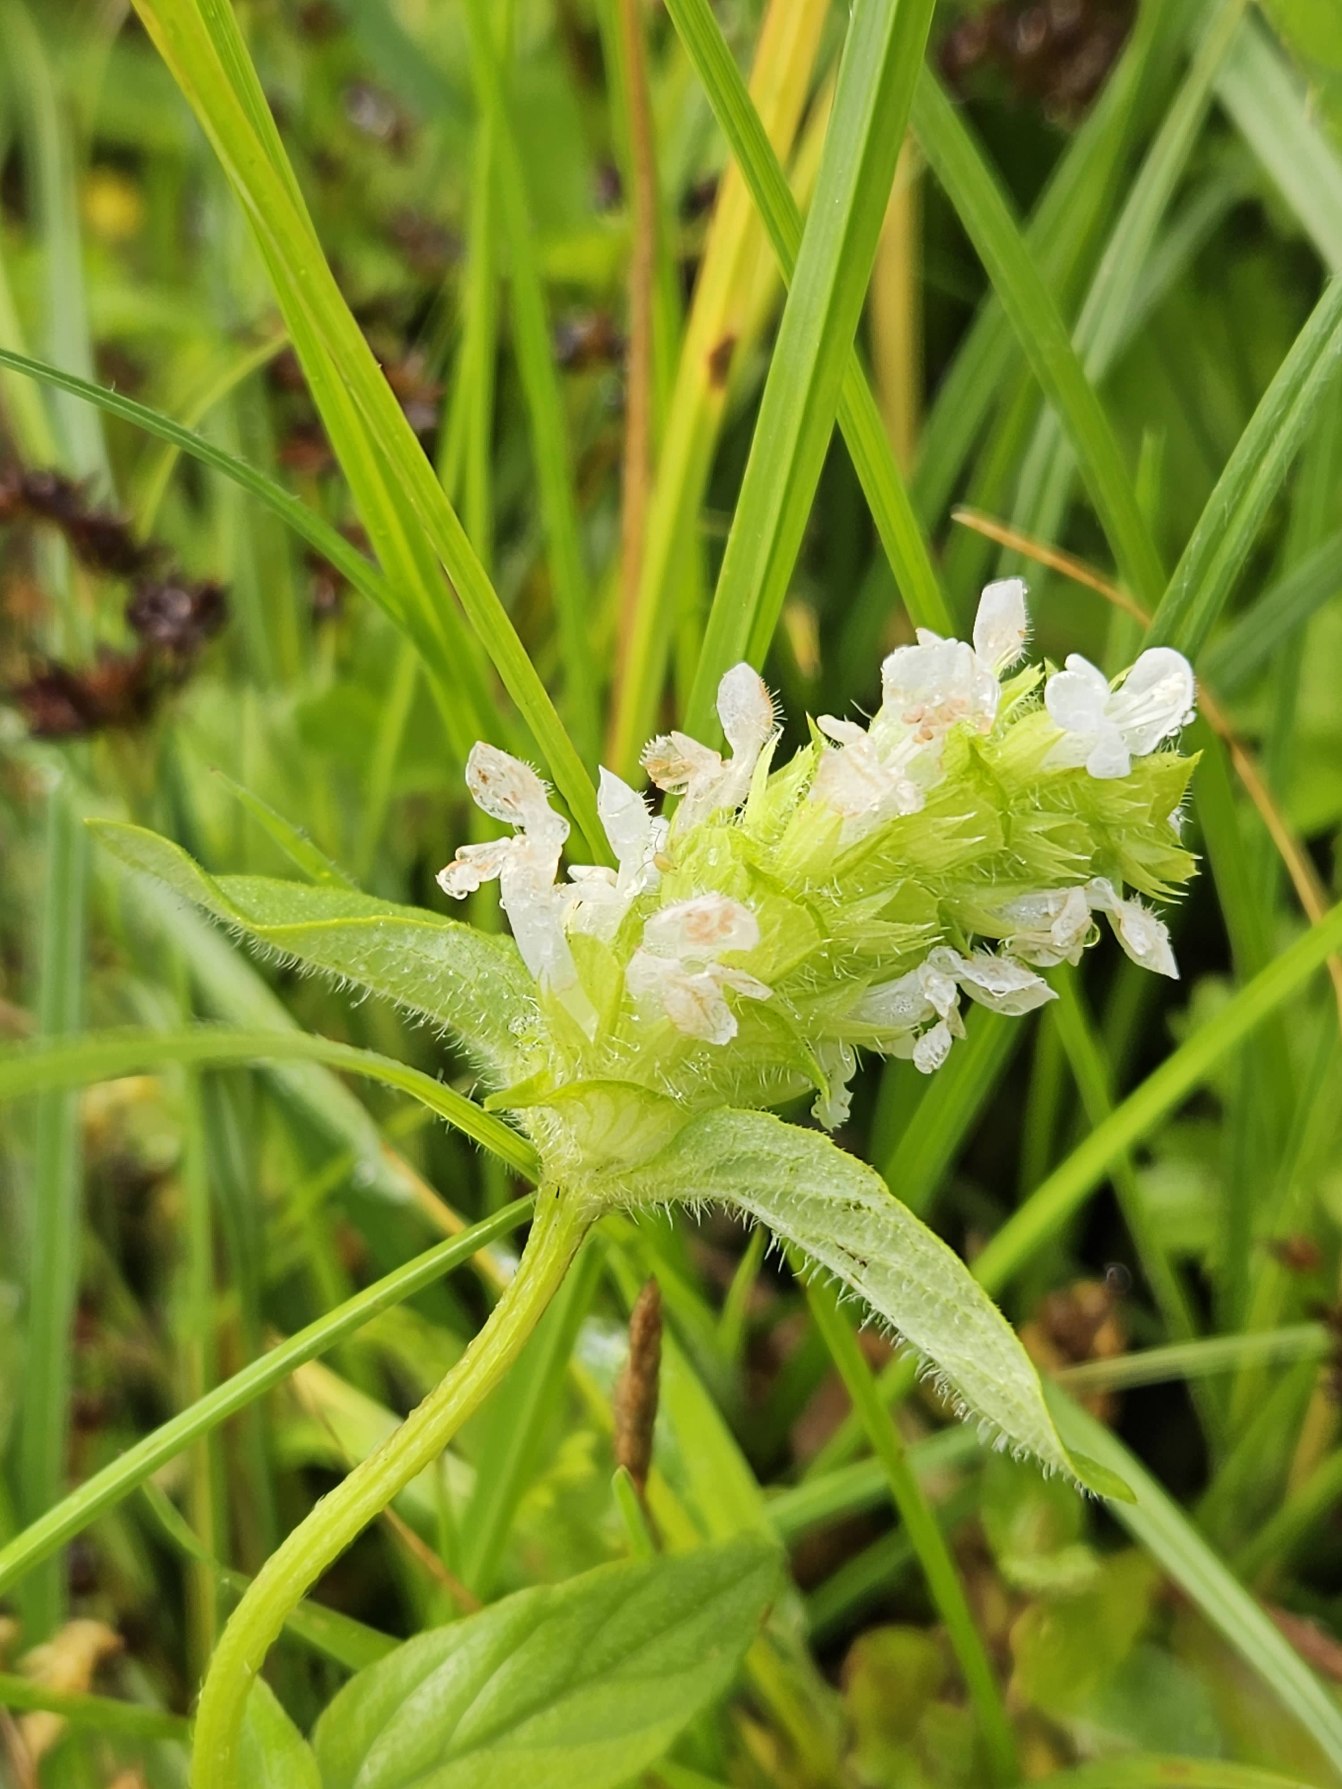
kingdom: Plantae
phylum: Tracheophyta
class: Magnoliopsida
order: Lamiales
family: Lamiaceae
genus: Prunella
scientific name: Prunella vulgaris
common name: Almindelig brunelle
